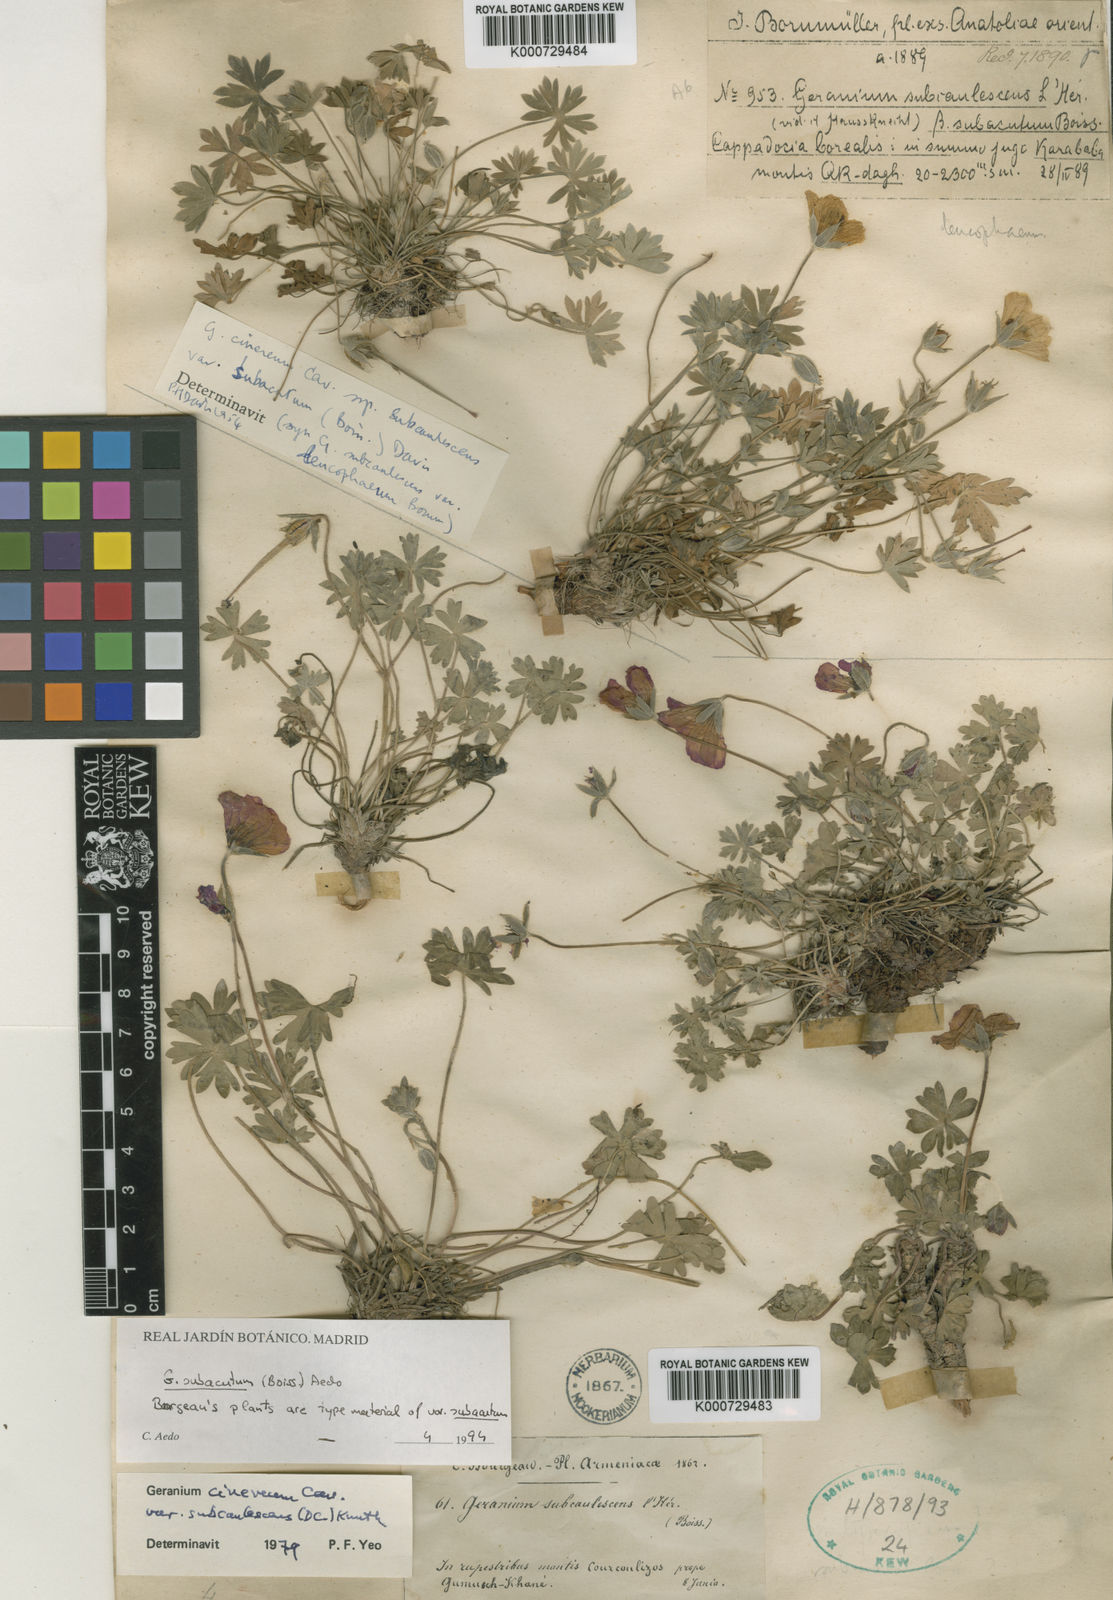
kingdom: Plantae
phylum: Tracheophyta
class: Magnoliopsida
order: Geraniales
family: Geraniaceae
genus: Geranium
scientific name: Geranium subacutum
